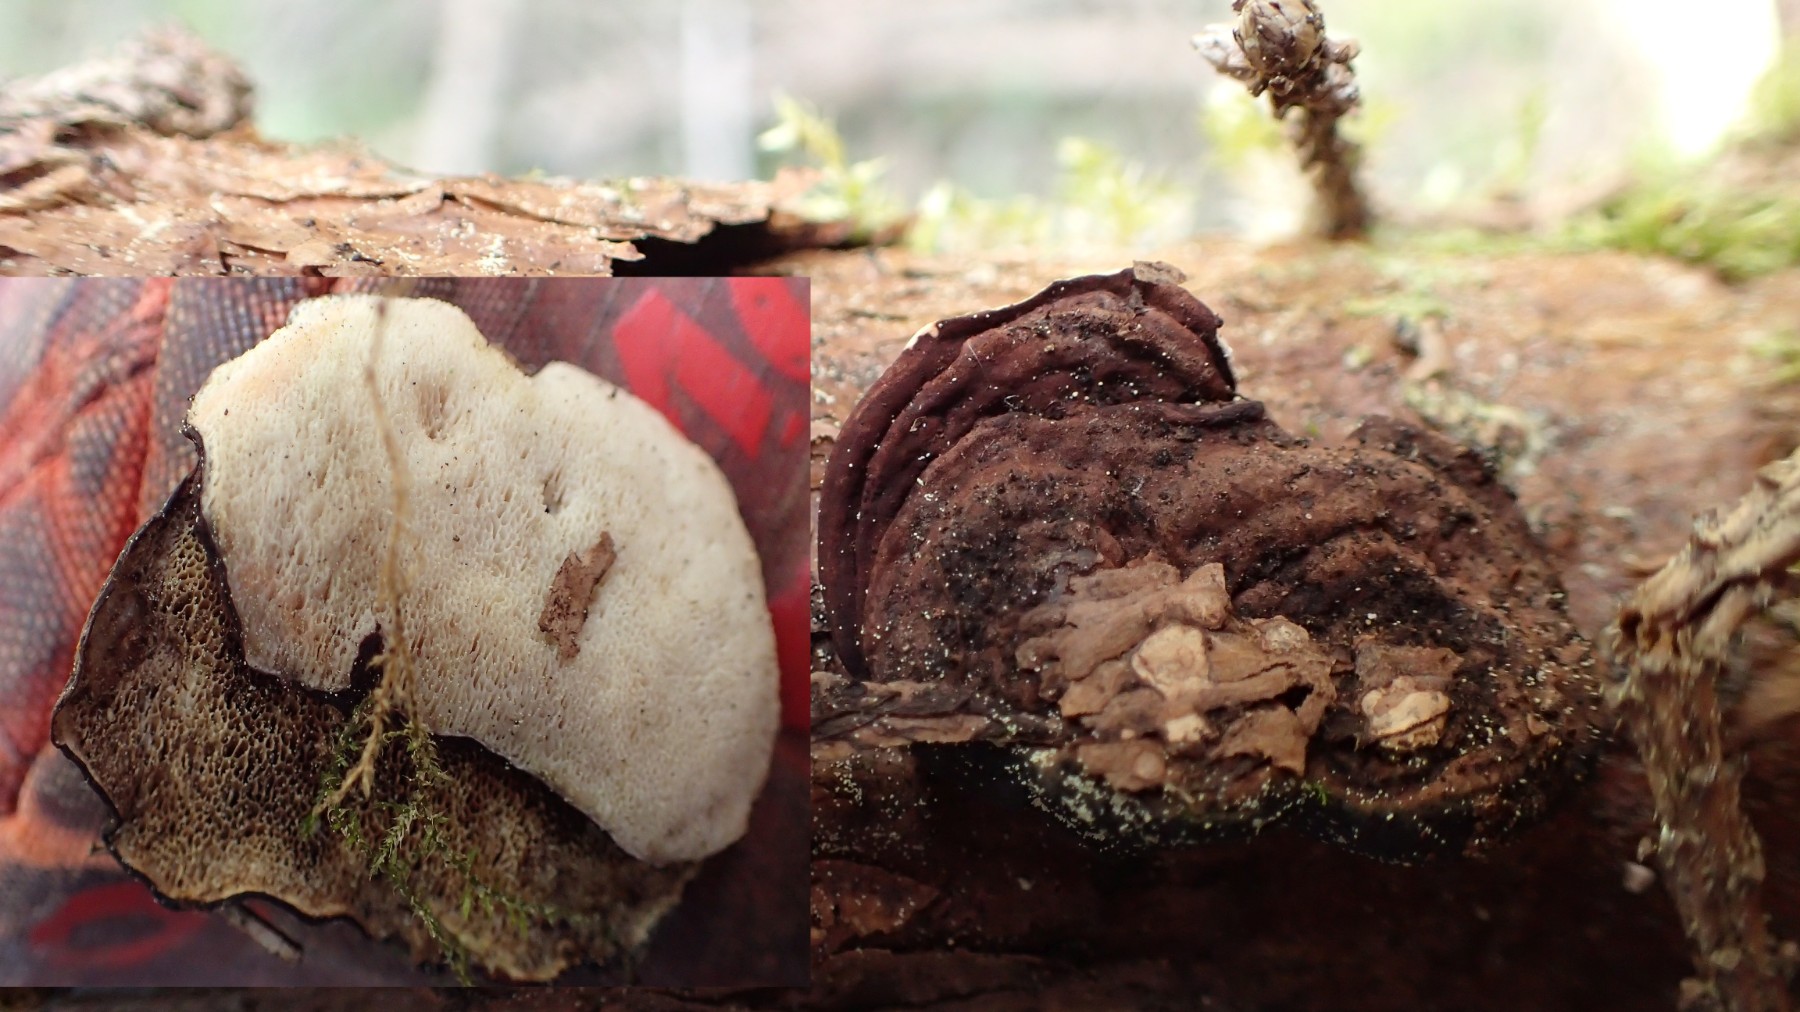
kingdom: Fungi
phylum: Basidiomycota
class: Agaricomycetes
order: Polyporales
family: Incrustoporiaceae
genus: Skeletocutis
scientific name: Skeletocutis carneogrisea
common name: rødgrå krystalporesvamp
